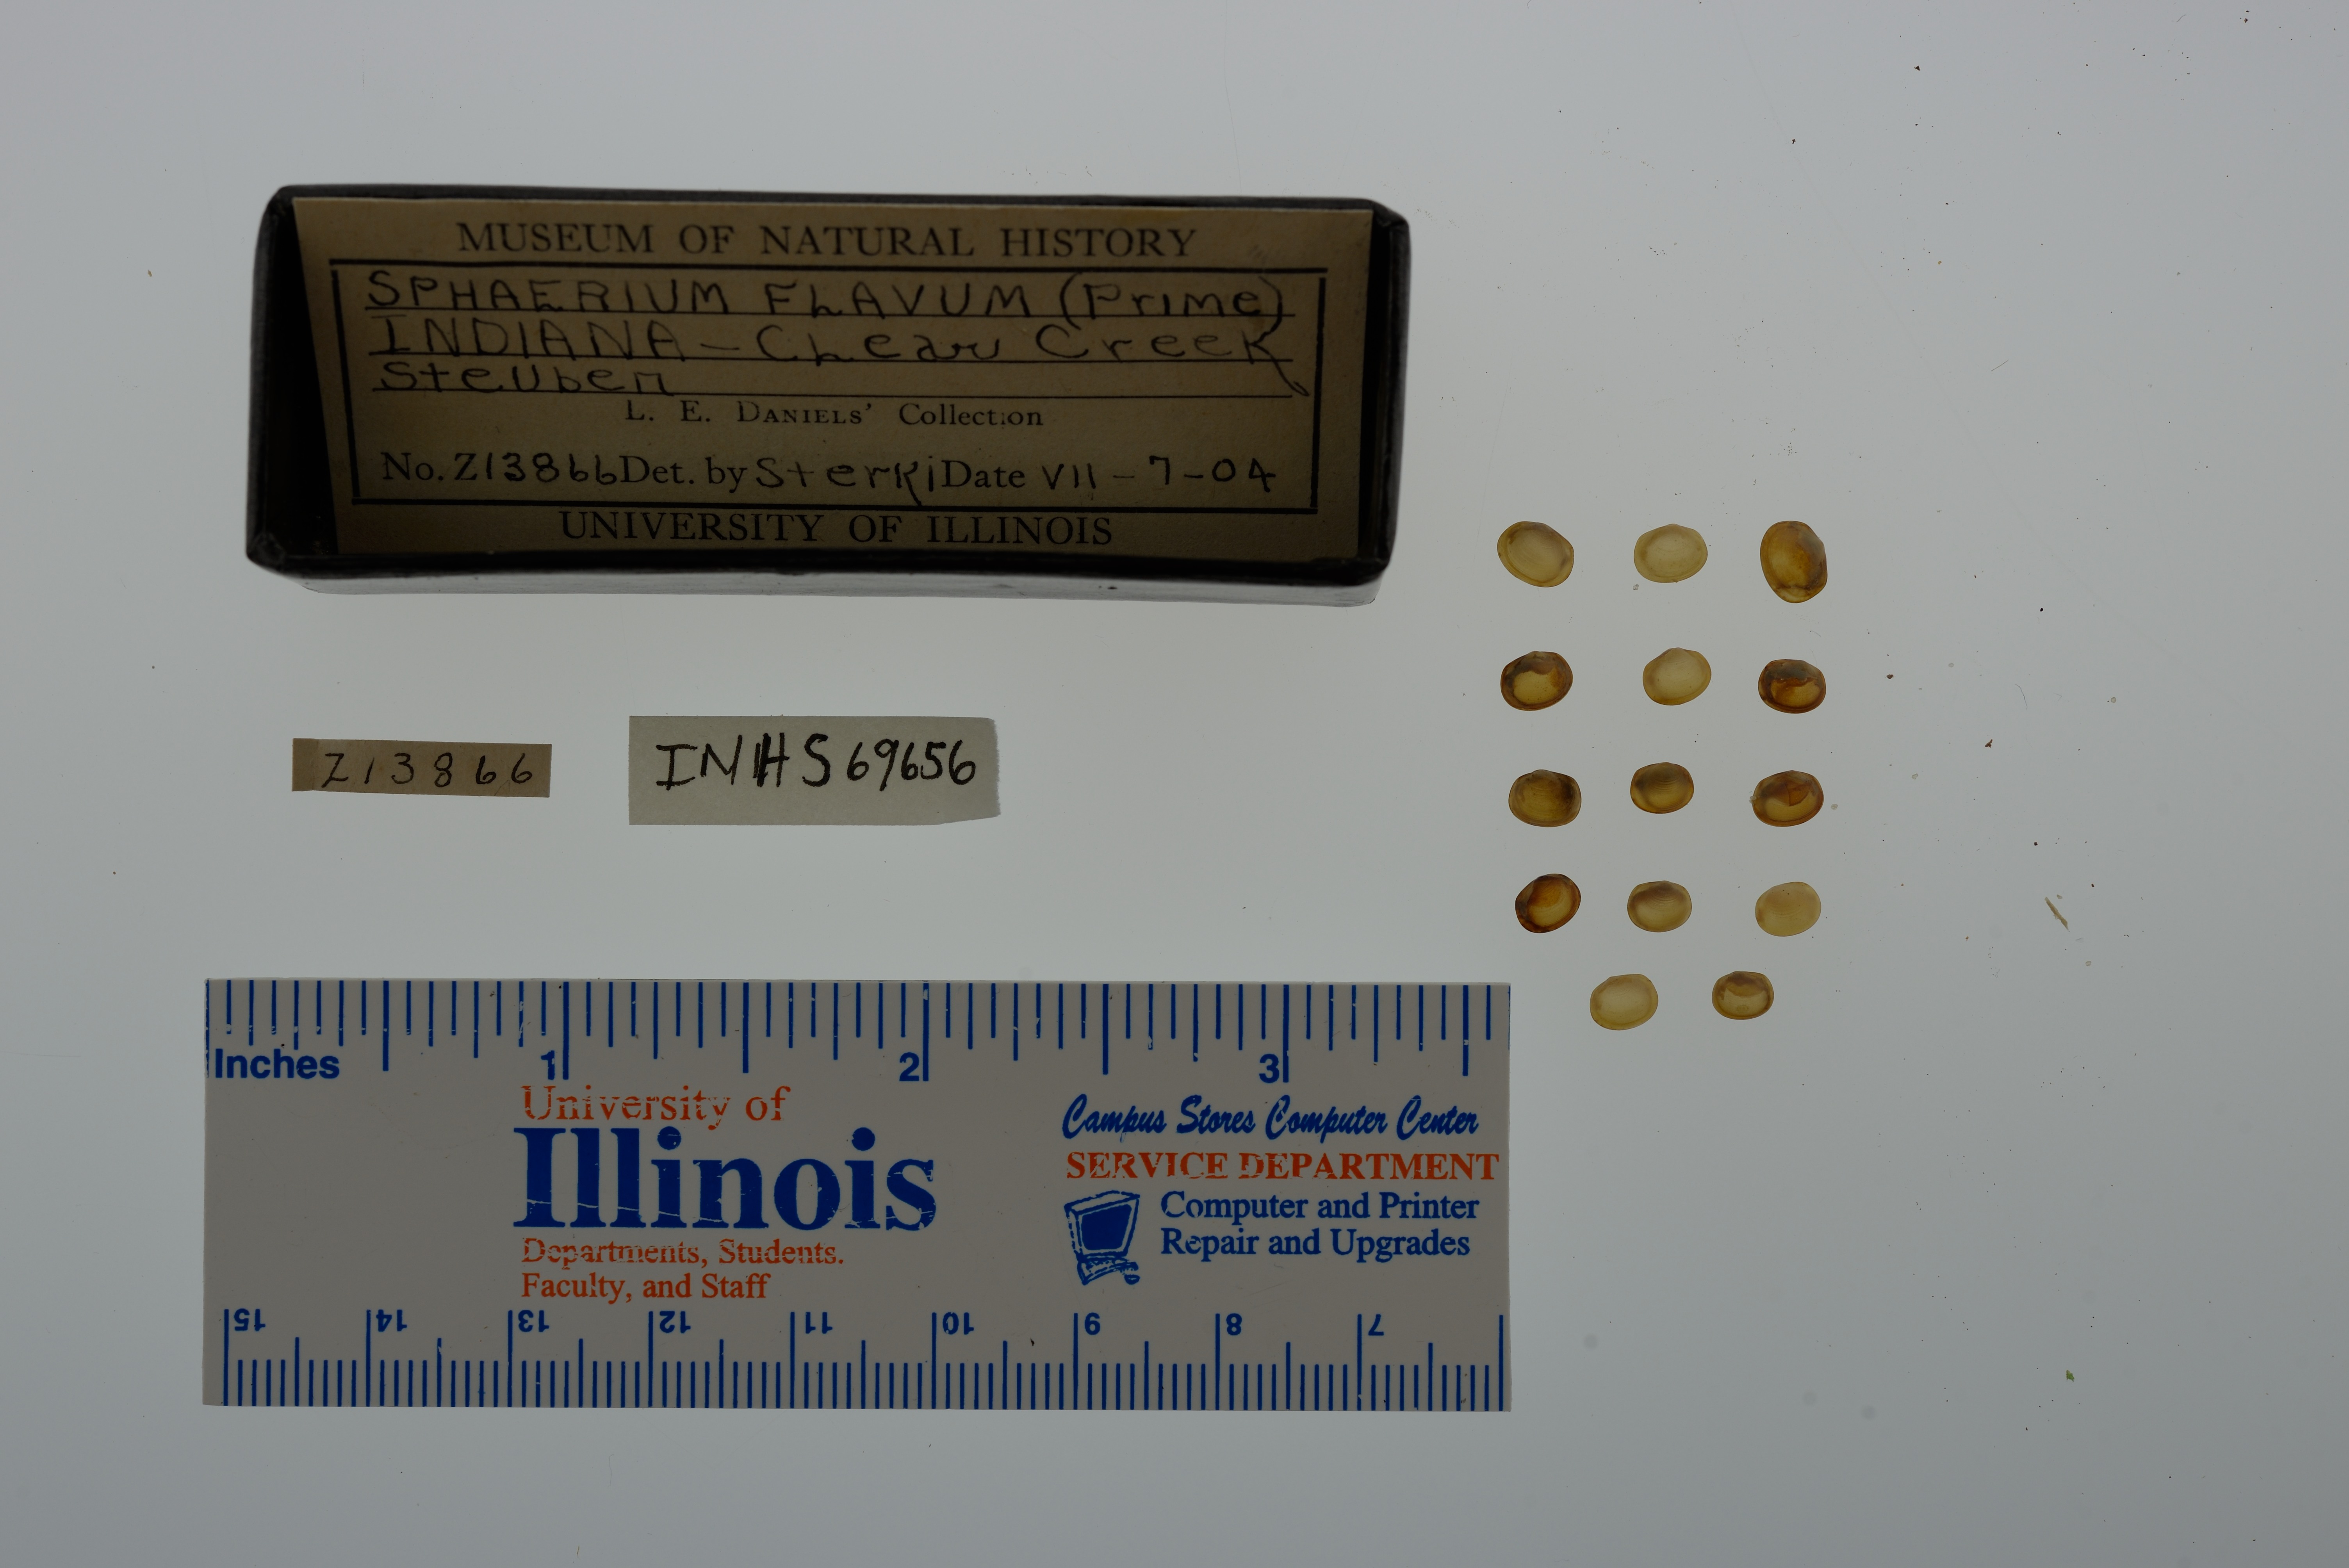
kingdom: Animalia
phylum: Mollusca
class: Bivalvia
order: Sphaeriida
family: Sphaeriidae
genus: Sphaerium
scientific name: Sphaerium striatinum
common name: Striated fingernailclam
